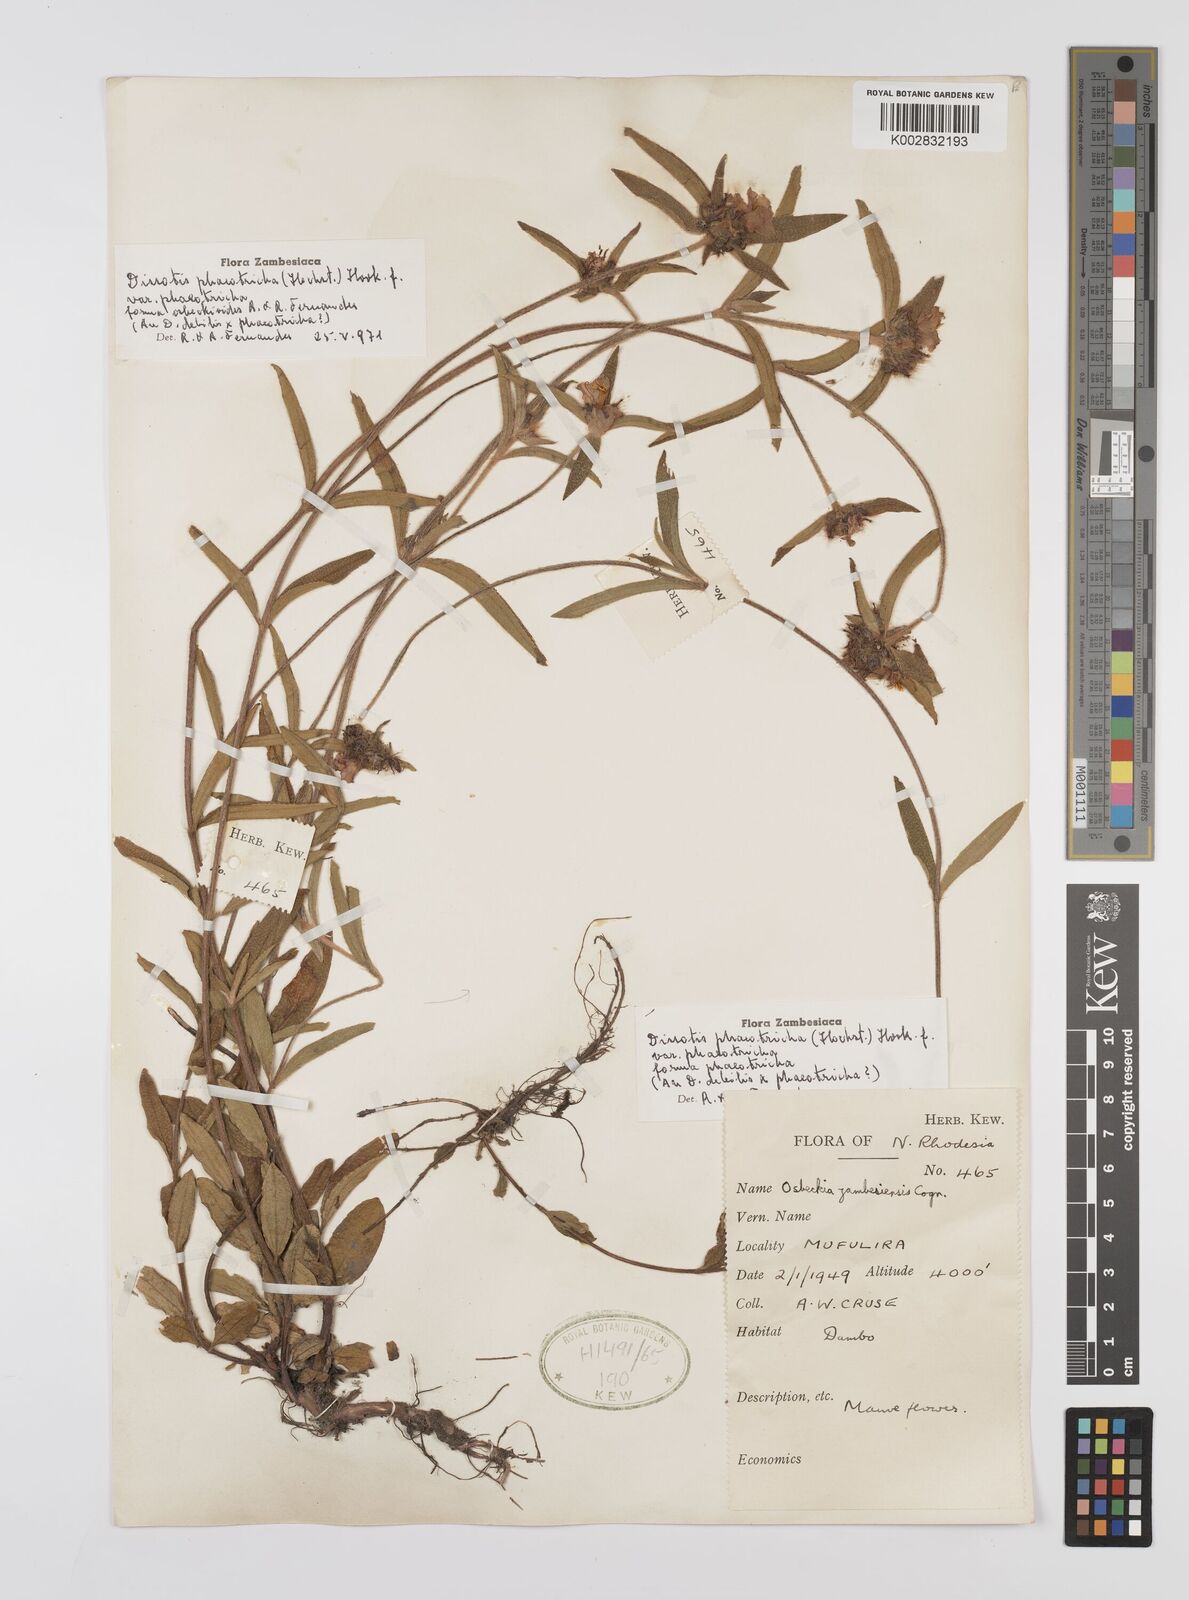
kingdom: Plantae
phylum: Tracheophyta
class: Magnoliopsida
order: Myrtales
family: Melastomataceae
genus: Antherotoma
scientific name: Antherotoma phaeotricha
